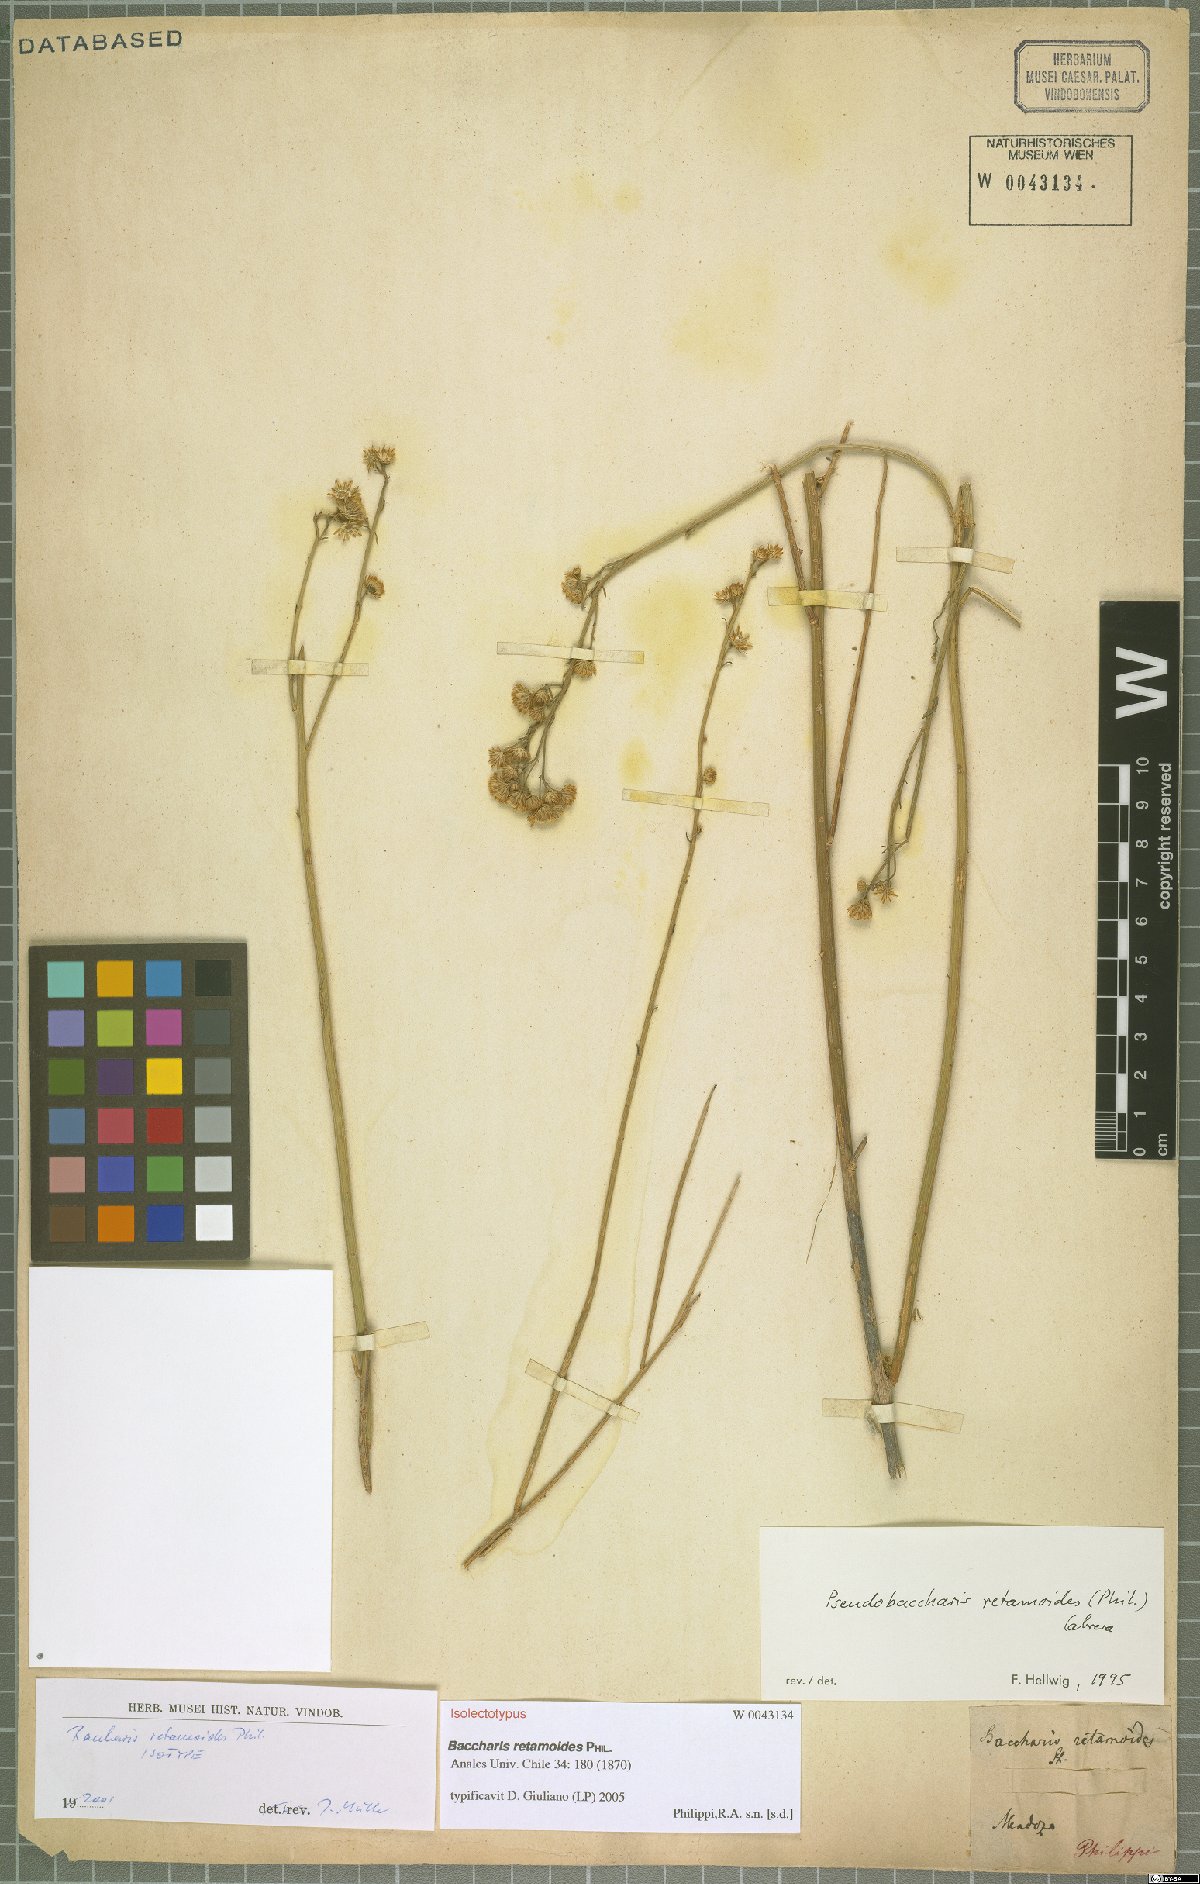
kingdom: Plantae
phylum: Tracheophyta
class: Magnoliopsida
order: Asterales
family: Asteraceae
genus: Pseudobaccharis
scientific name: Pseudobaccharis retamoides
